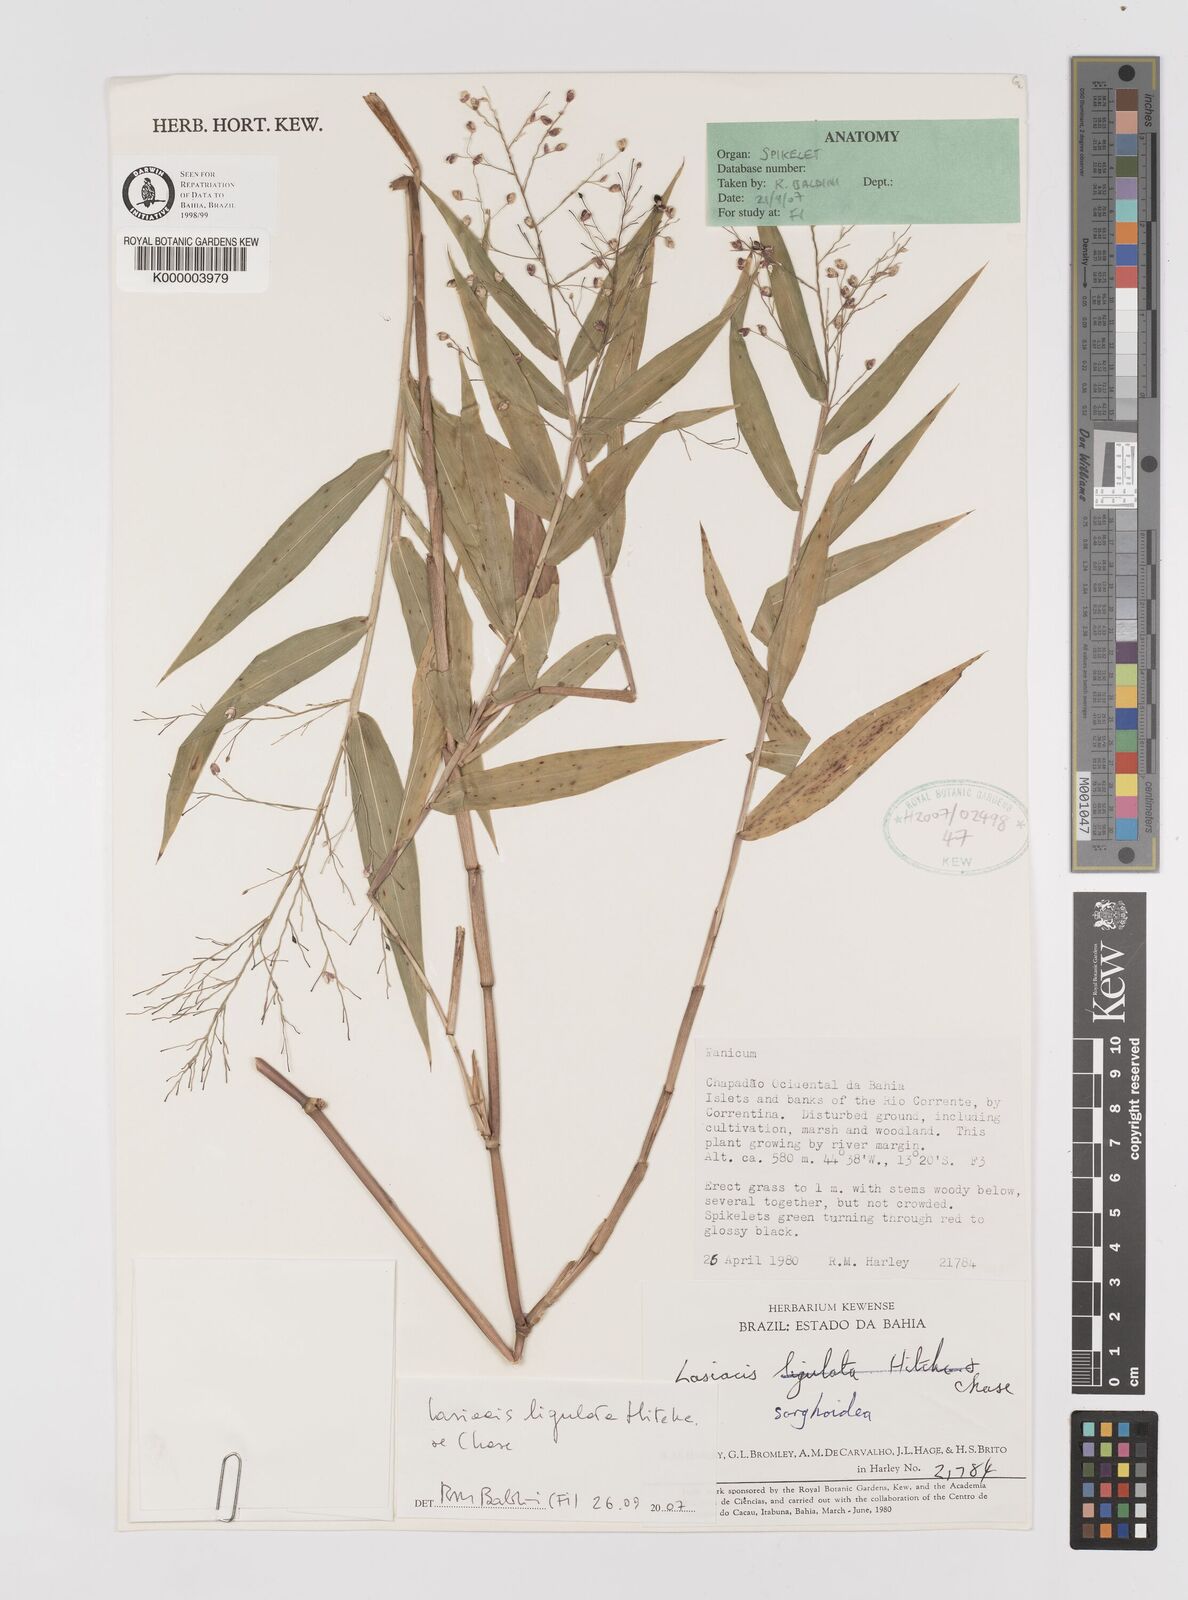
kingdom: Plantae
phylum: Tracheophyta
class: Liliopsida
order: Poales
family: Poaceae
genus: Lasiacis
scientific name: Lasiacis maculata
